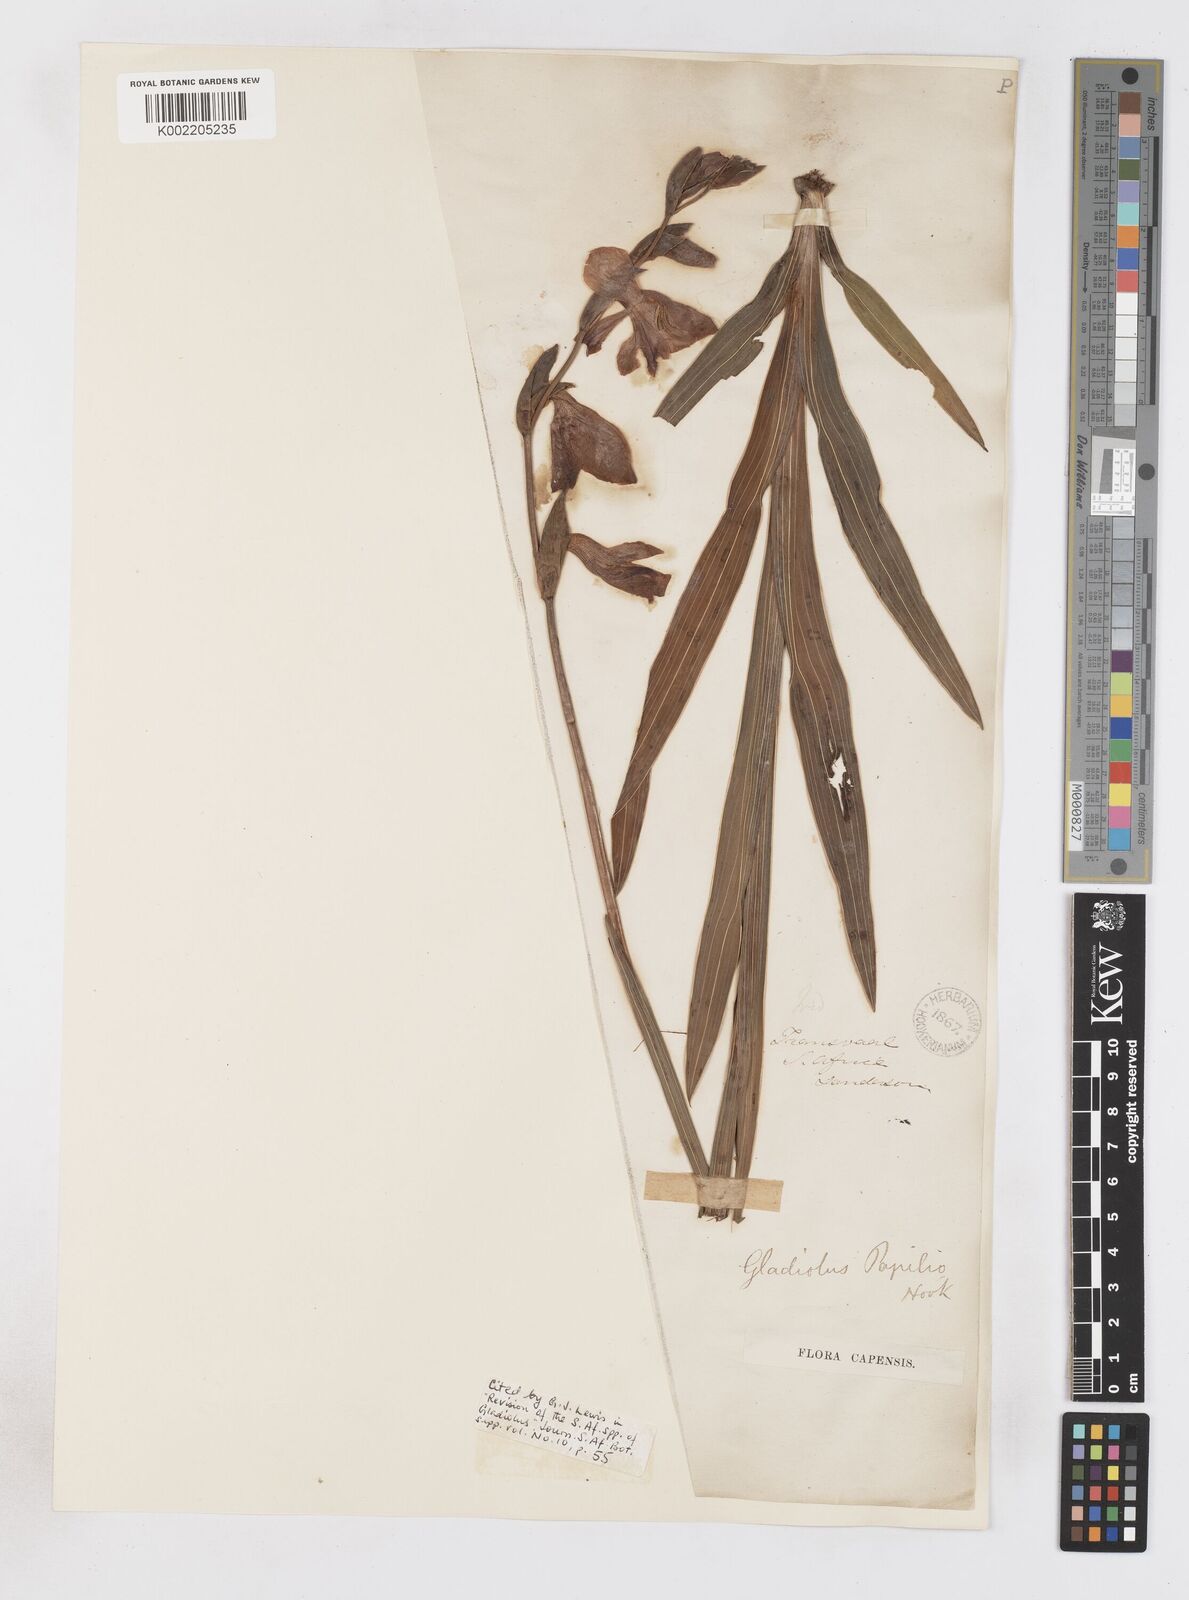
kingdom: Plantae
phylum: Tracheophyta
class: Liliopsida
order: Asparagales
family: Iridaceae
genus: Gladiolus
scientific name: Gladiolus papilio
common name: Goldblotch gladiolus
